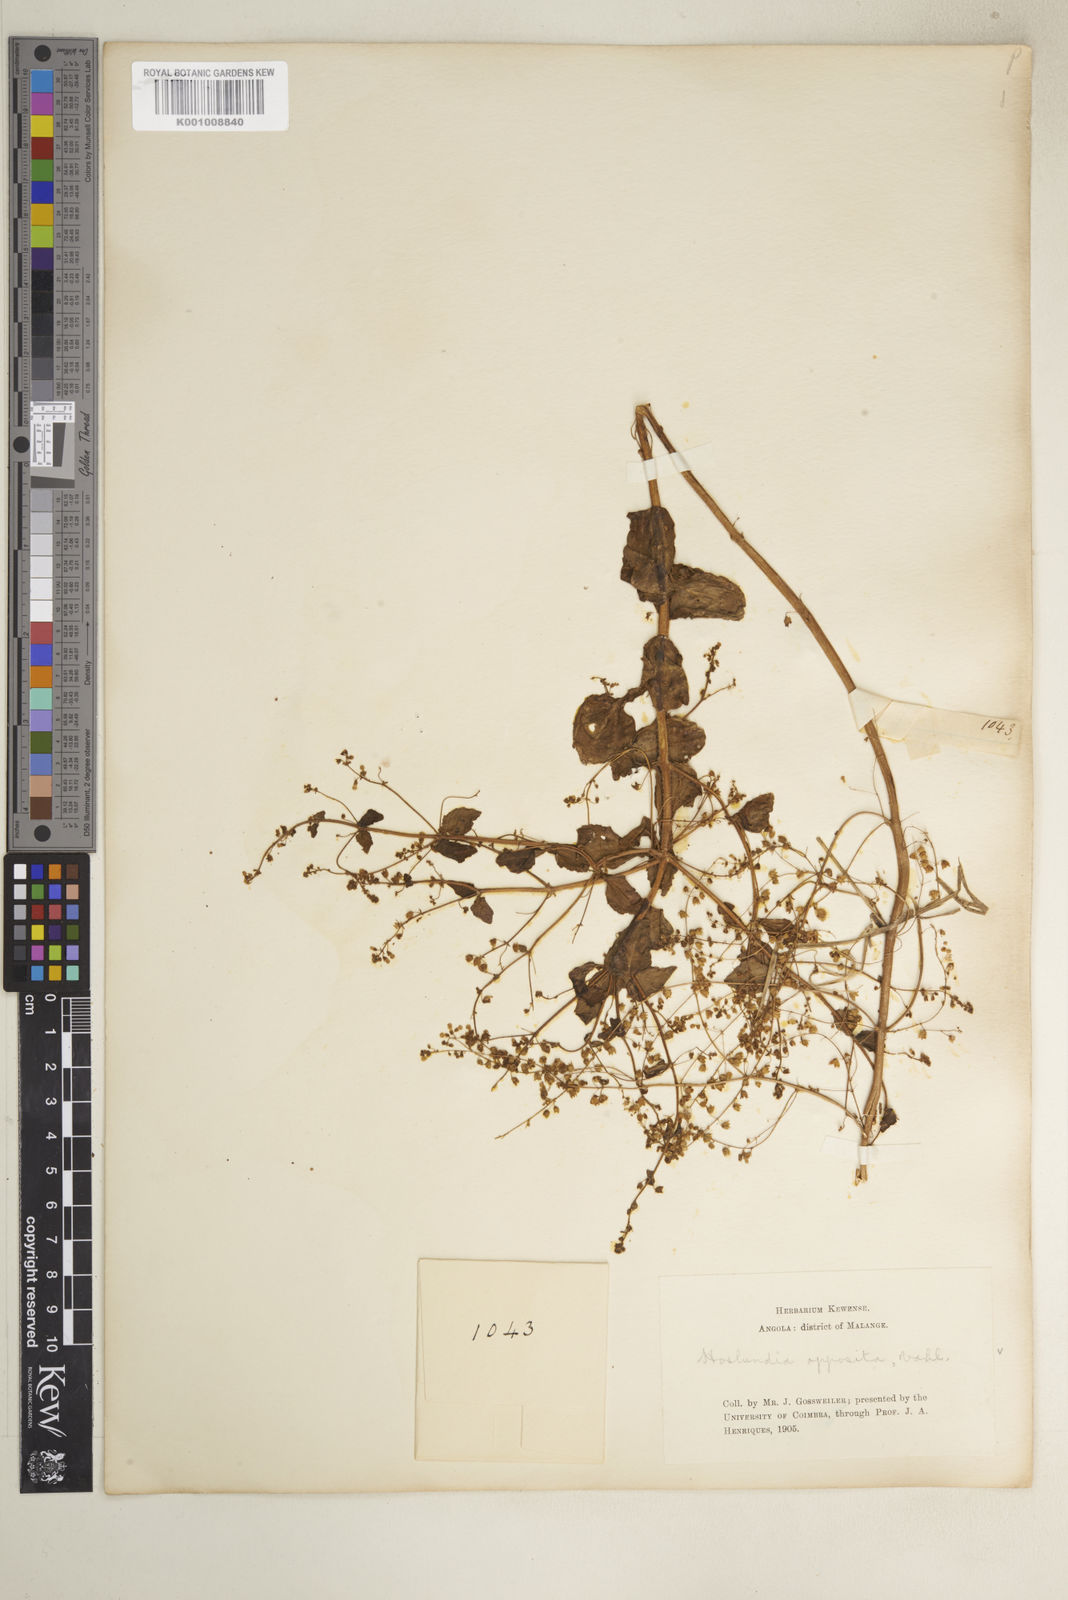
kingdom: Plantae
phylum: Tracheophyta
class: Magnoliopsida
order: Lamiales
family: Lamiaceae
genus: Hoslundia
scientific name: Hoslundia opposita
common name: Kamyuye
